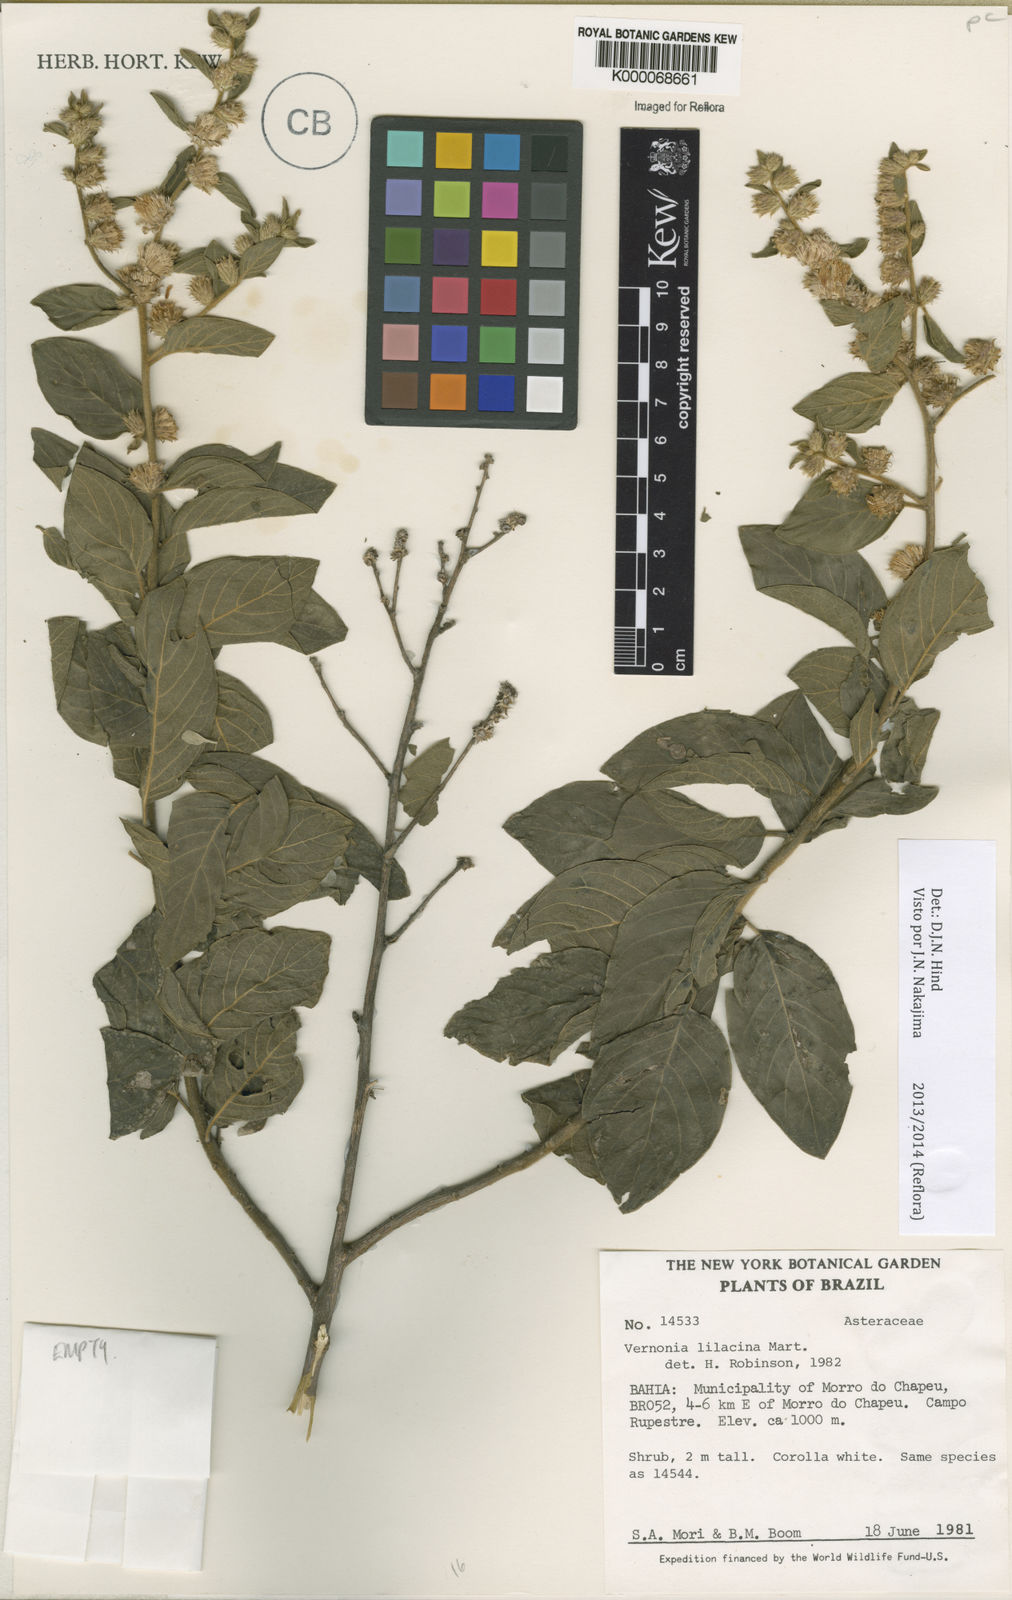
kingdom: Plantae
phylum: Tracheophyta
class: Magnoliopsida
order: Asterales
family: Asteraceae
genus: Lepidaploa
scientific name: Lepidaploa lilacina
